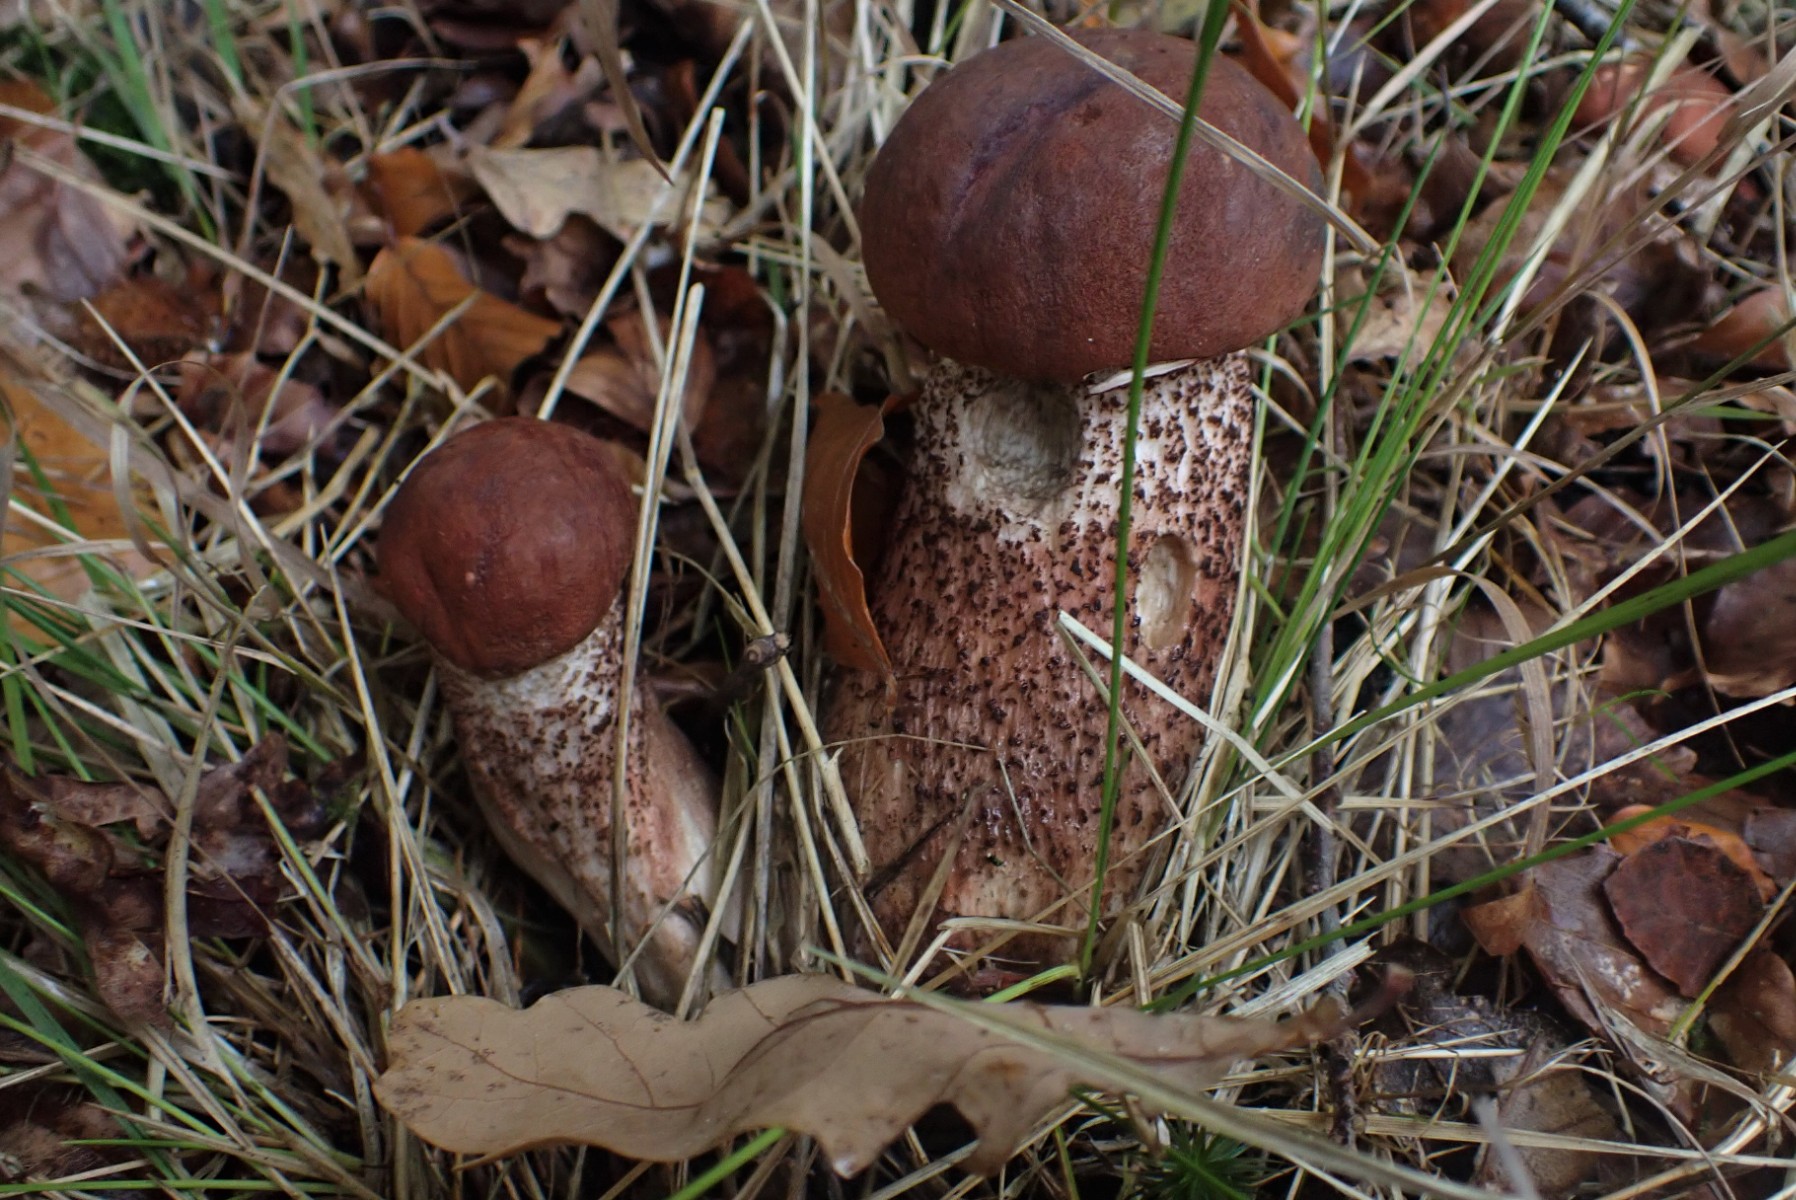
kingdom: Fungi
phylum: Basidiomycota
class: Agaricomycetes
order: Boletales
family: Boletaceae
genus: Leccinum
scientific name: Leccinum aurantiacum
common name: rustrød skælrørhat
